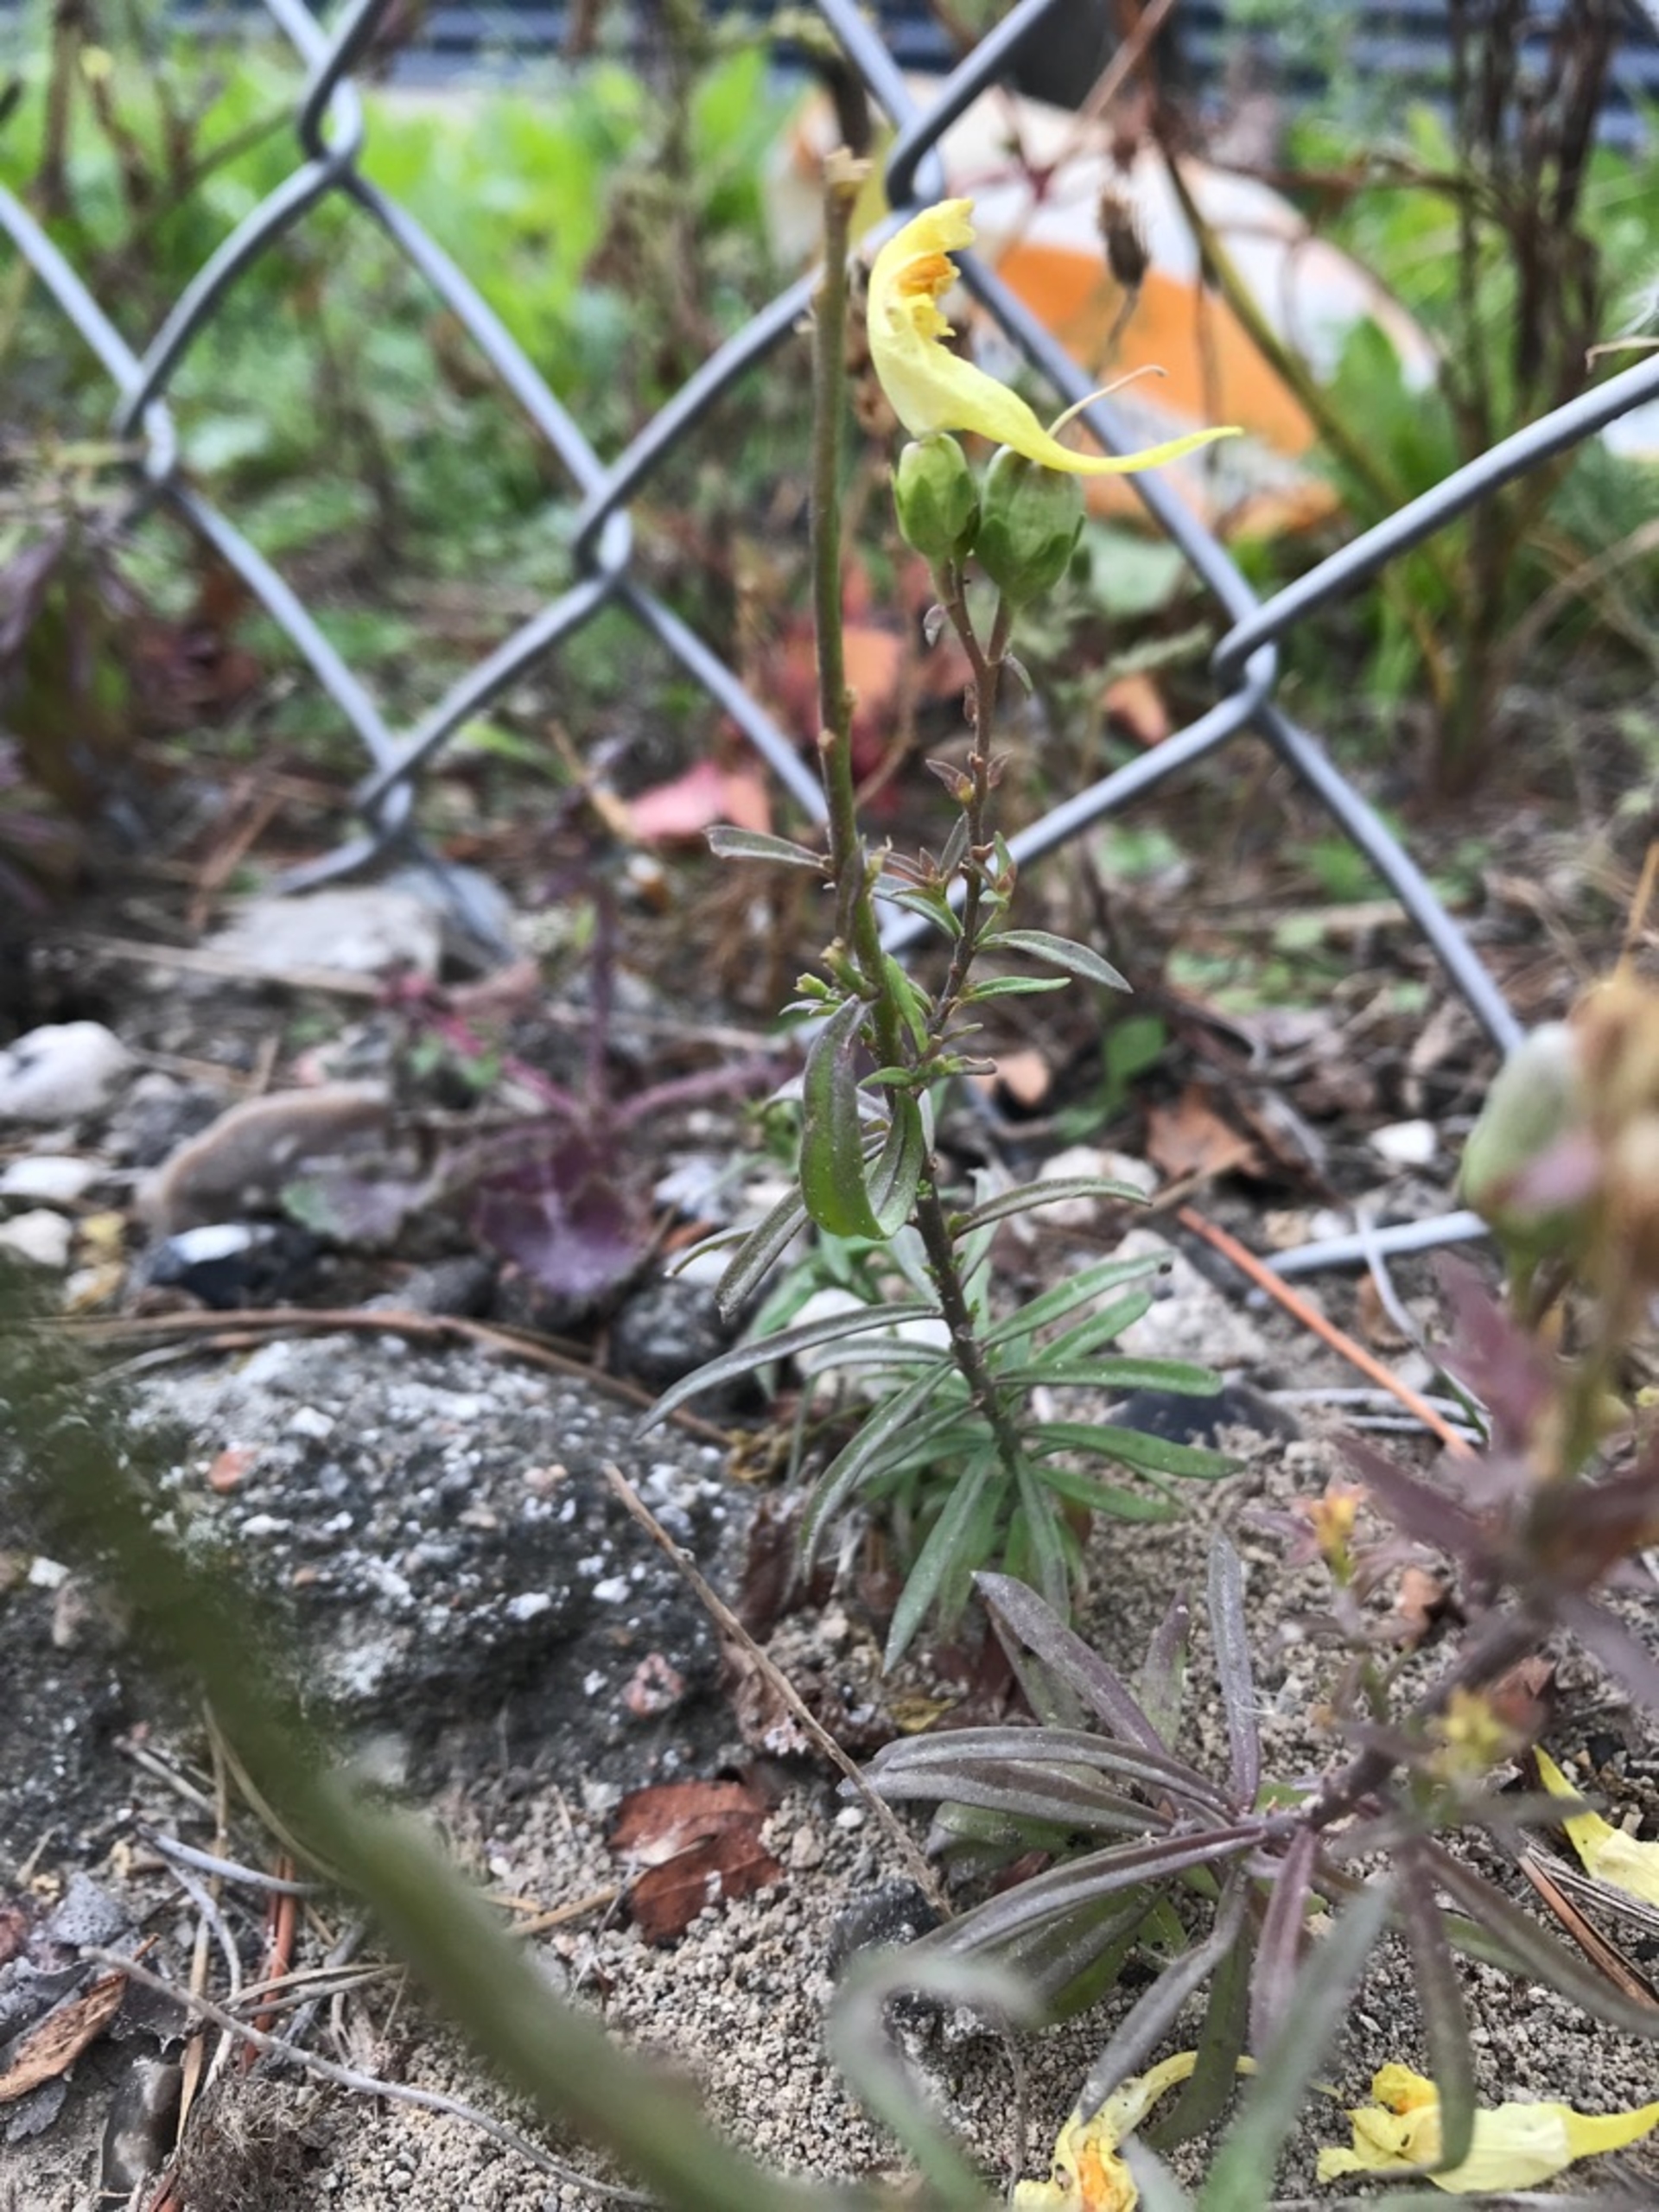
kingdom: Plantae
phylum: Tracheophyta
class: Magnoliopsida
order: Lamiales
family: Plantaginaceae
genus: Linaria
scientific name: Linaria vulgaris
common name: Almindelig torskemund
